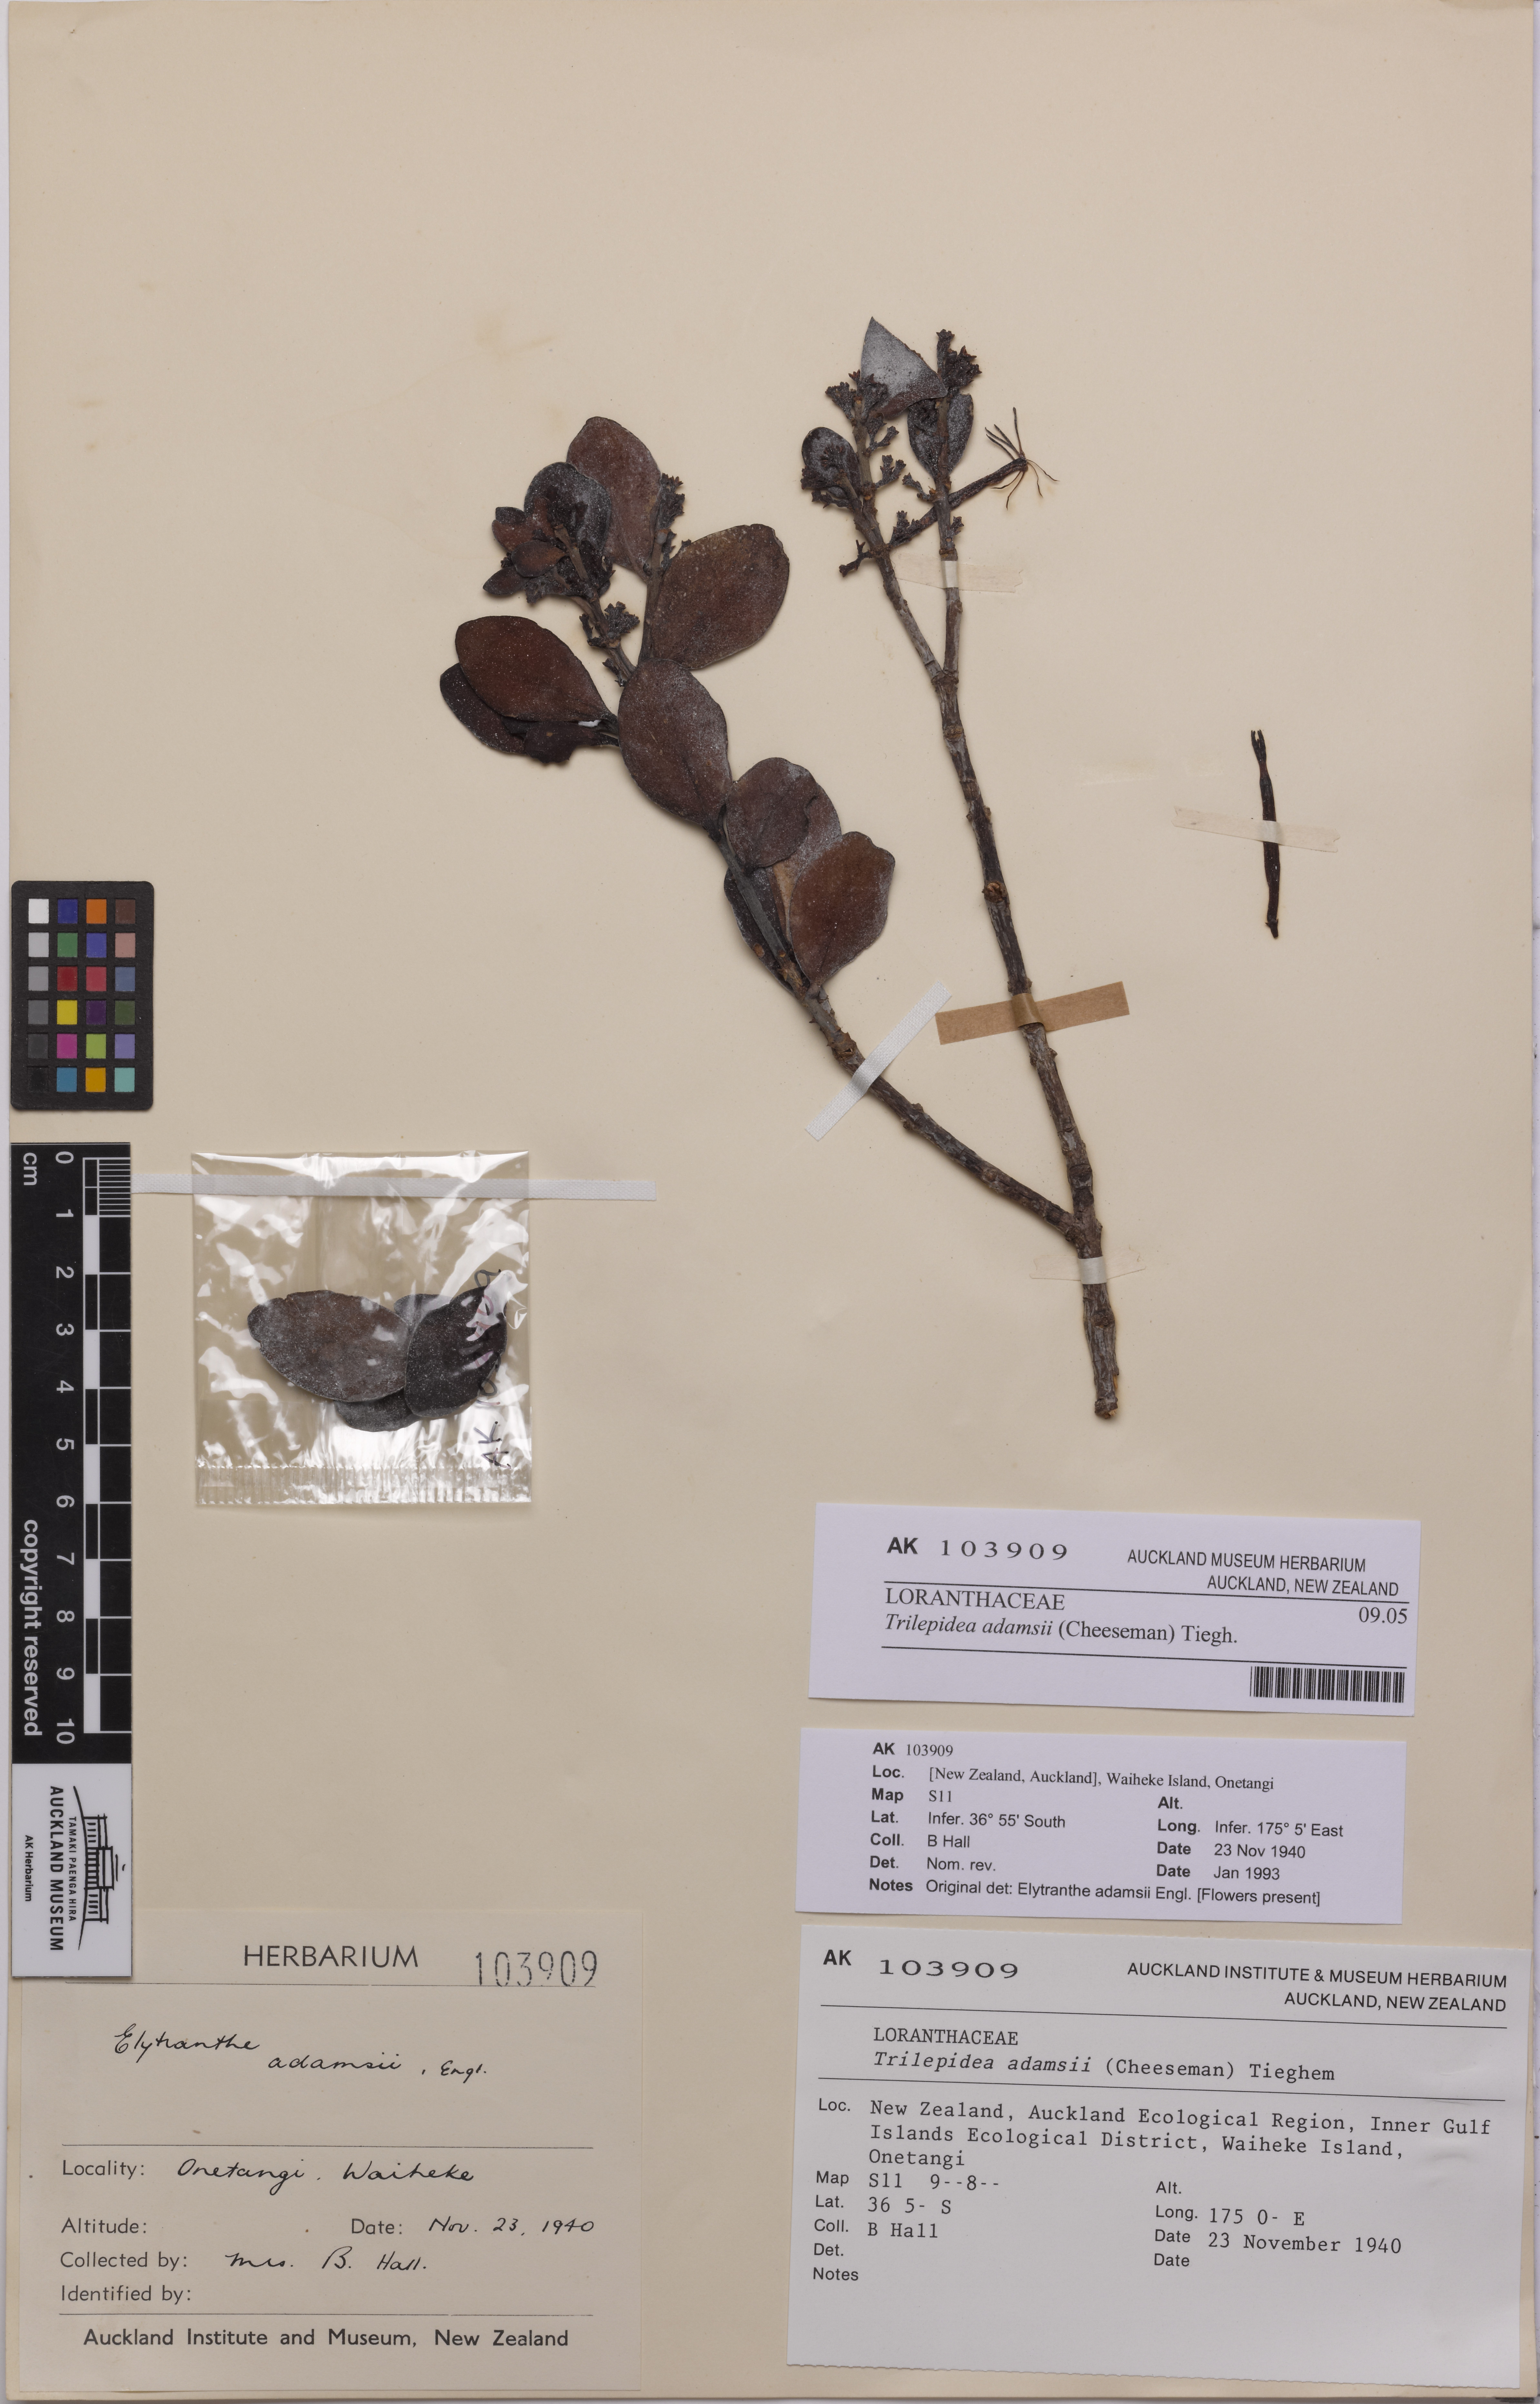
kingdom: Plantae
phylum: Tracheophyta
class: Magnoliopsida
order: Santalales
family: Loranthaceae
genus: Trilepidea
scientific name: Trilepidea adamsii
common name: Adams mistletoe
